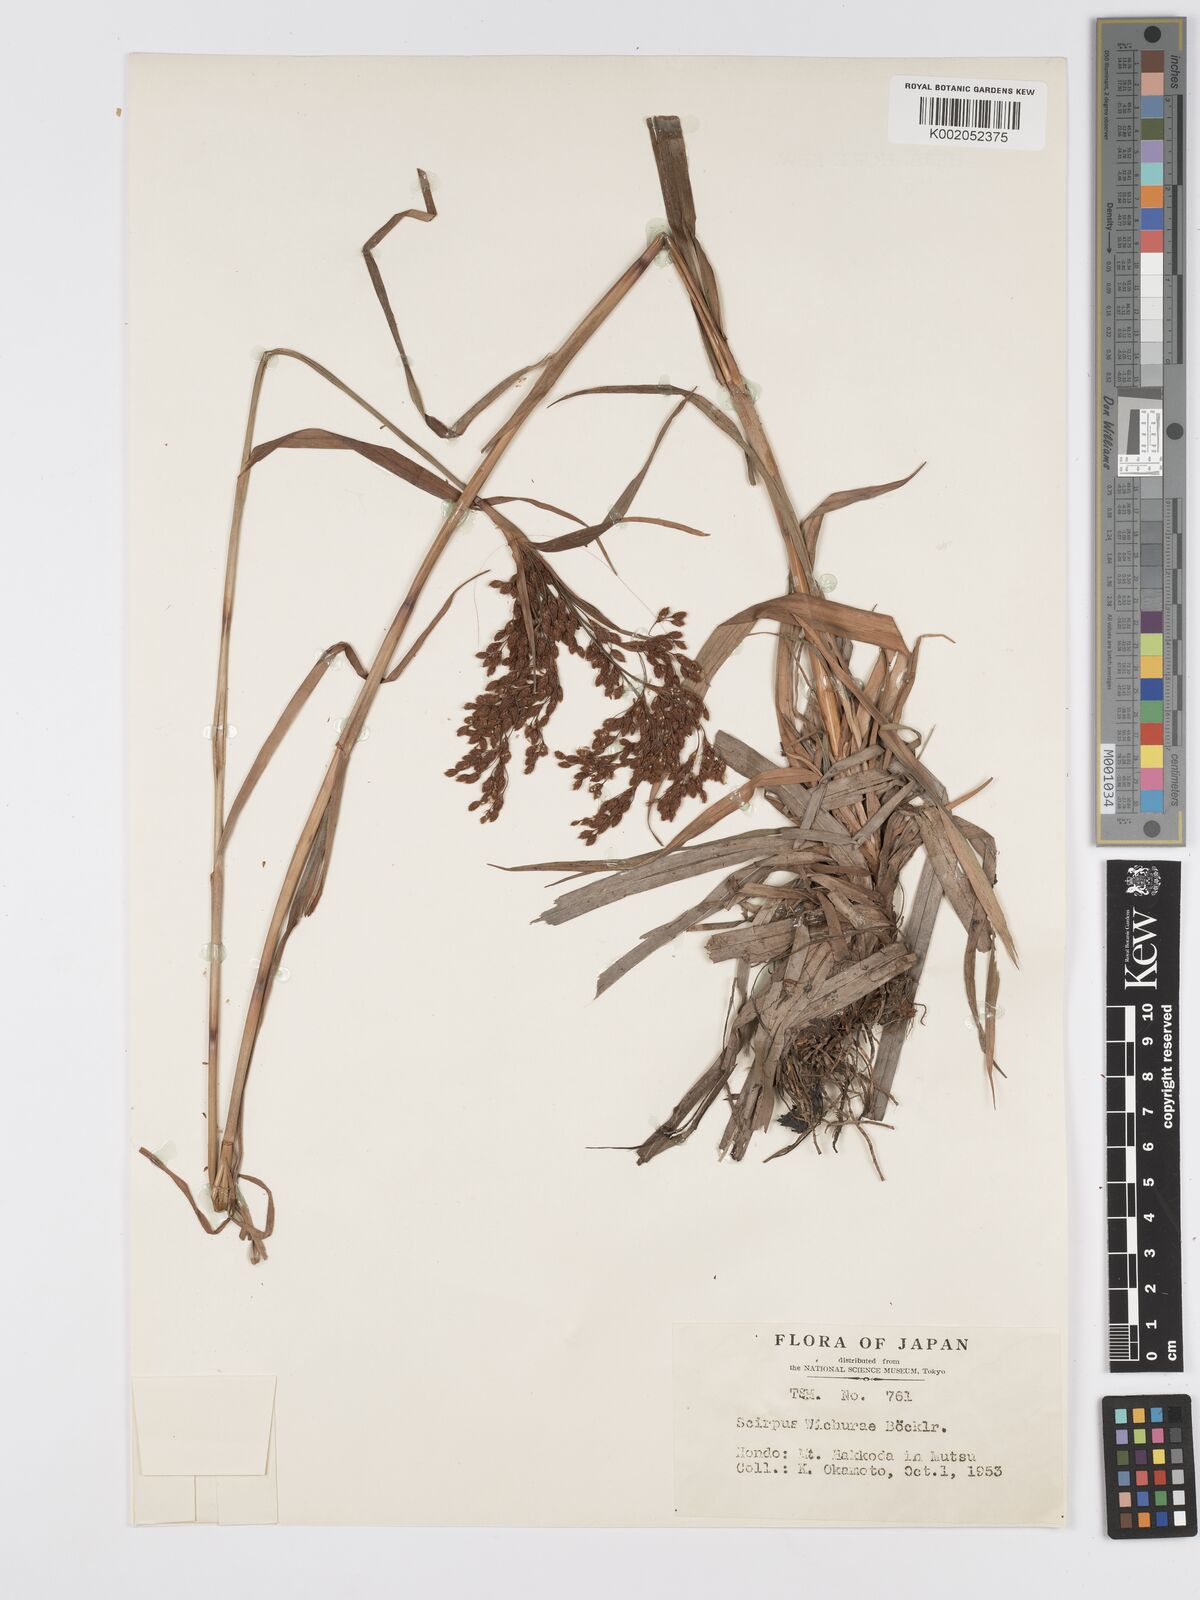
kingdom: Plantae
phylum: Tracheophyta
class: Liliopsida
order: Poales
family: Cyperaceae
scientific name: Cyperaceae
